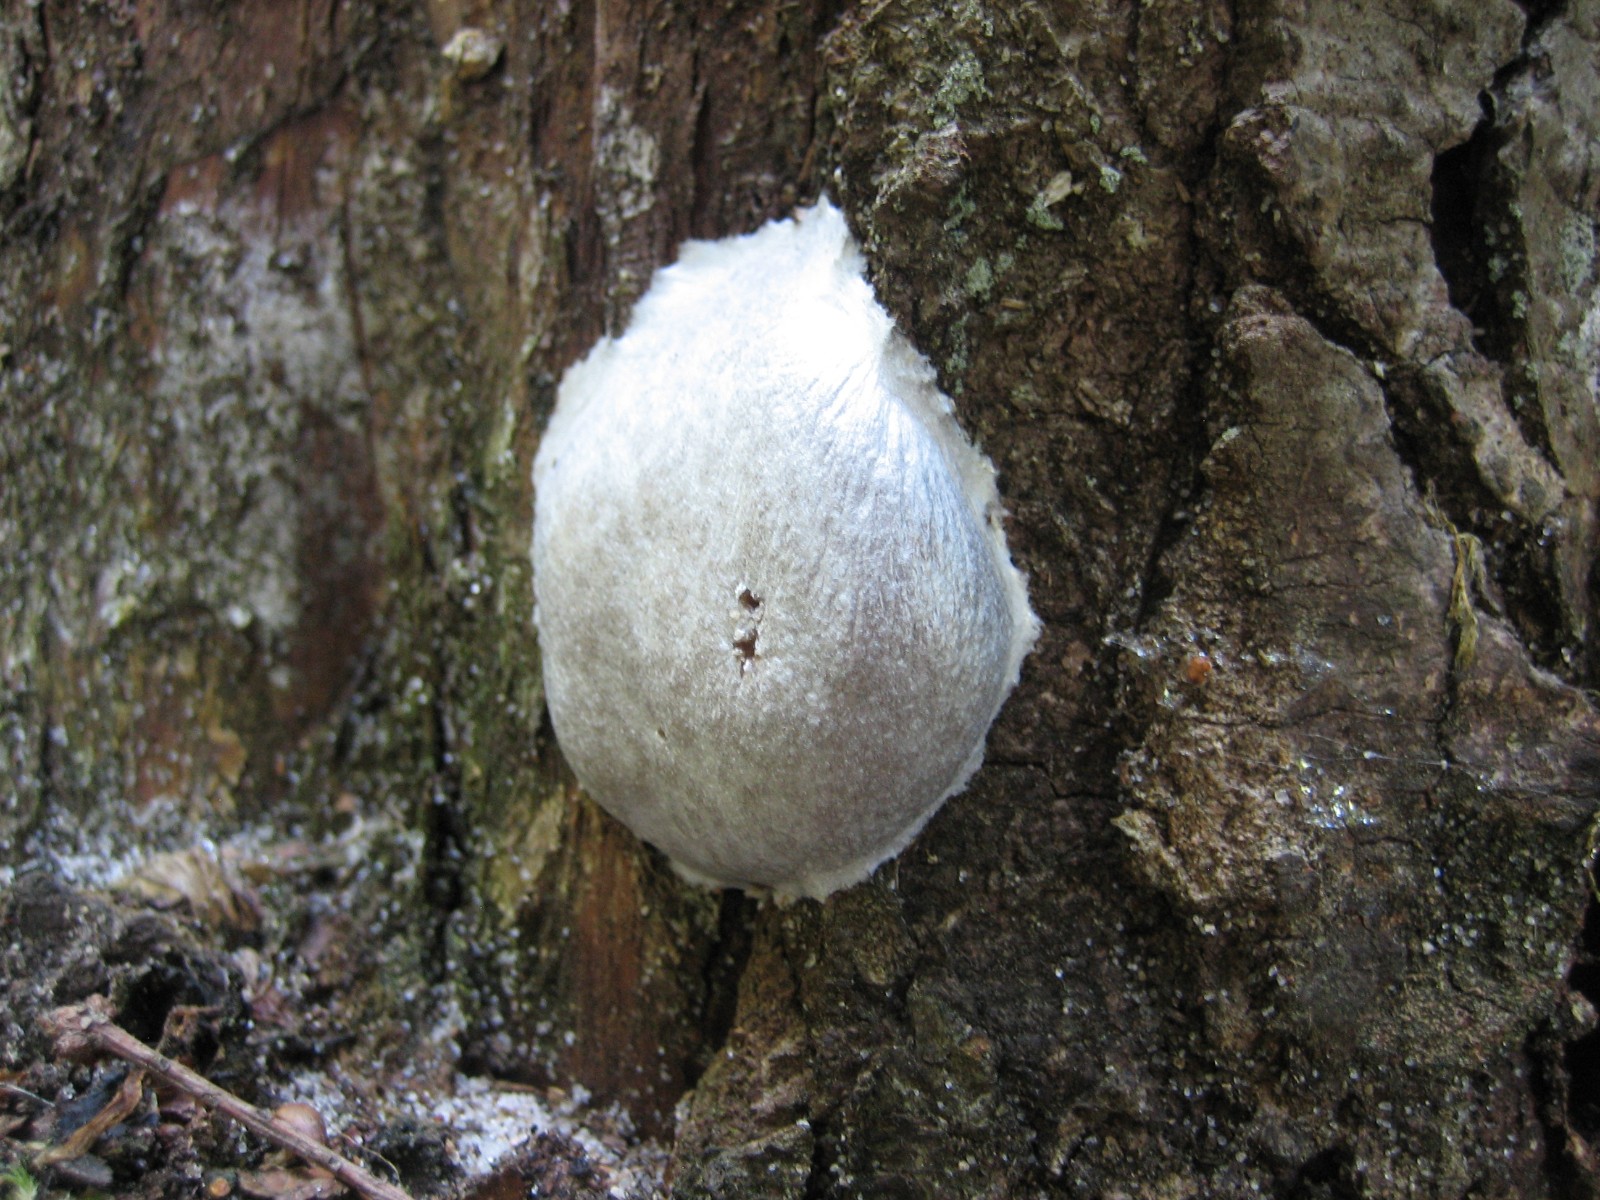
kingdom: Protozoa
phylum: Mycetozoa
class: Myxomycetes
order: Cribrariales
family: Tubiferaceae
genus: Reticularia
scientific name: Reticularia lycoperdon
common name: skinnende støvpude
